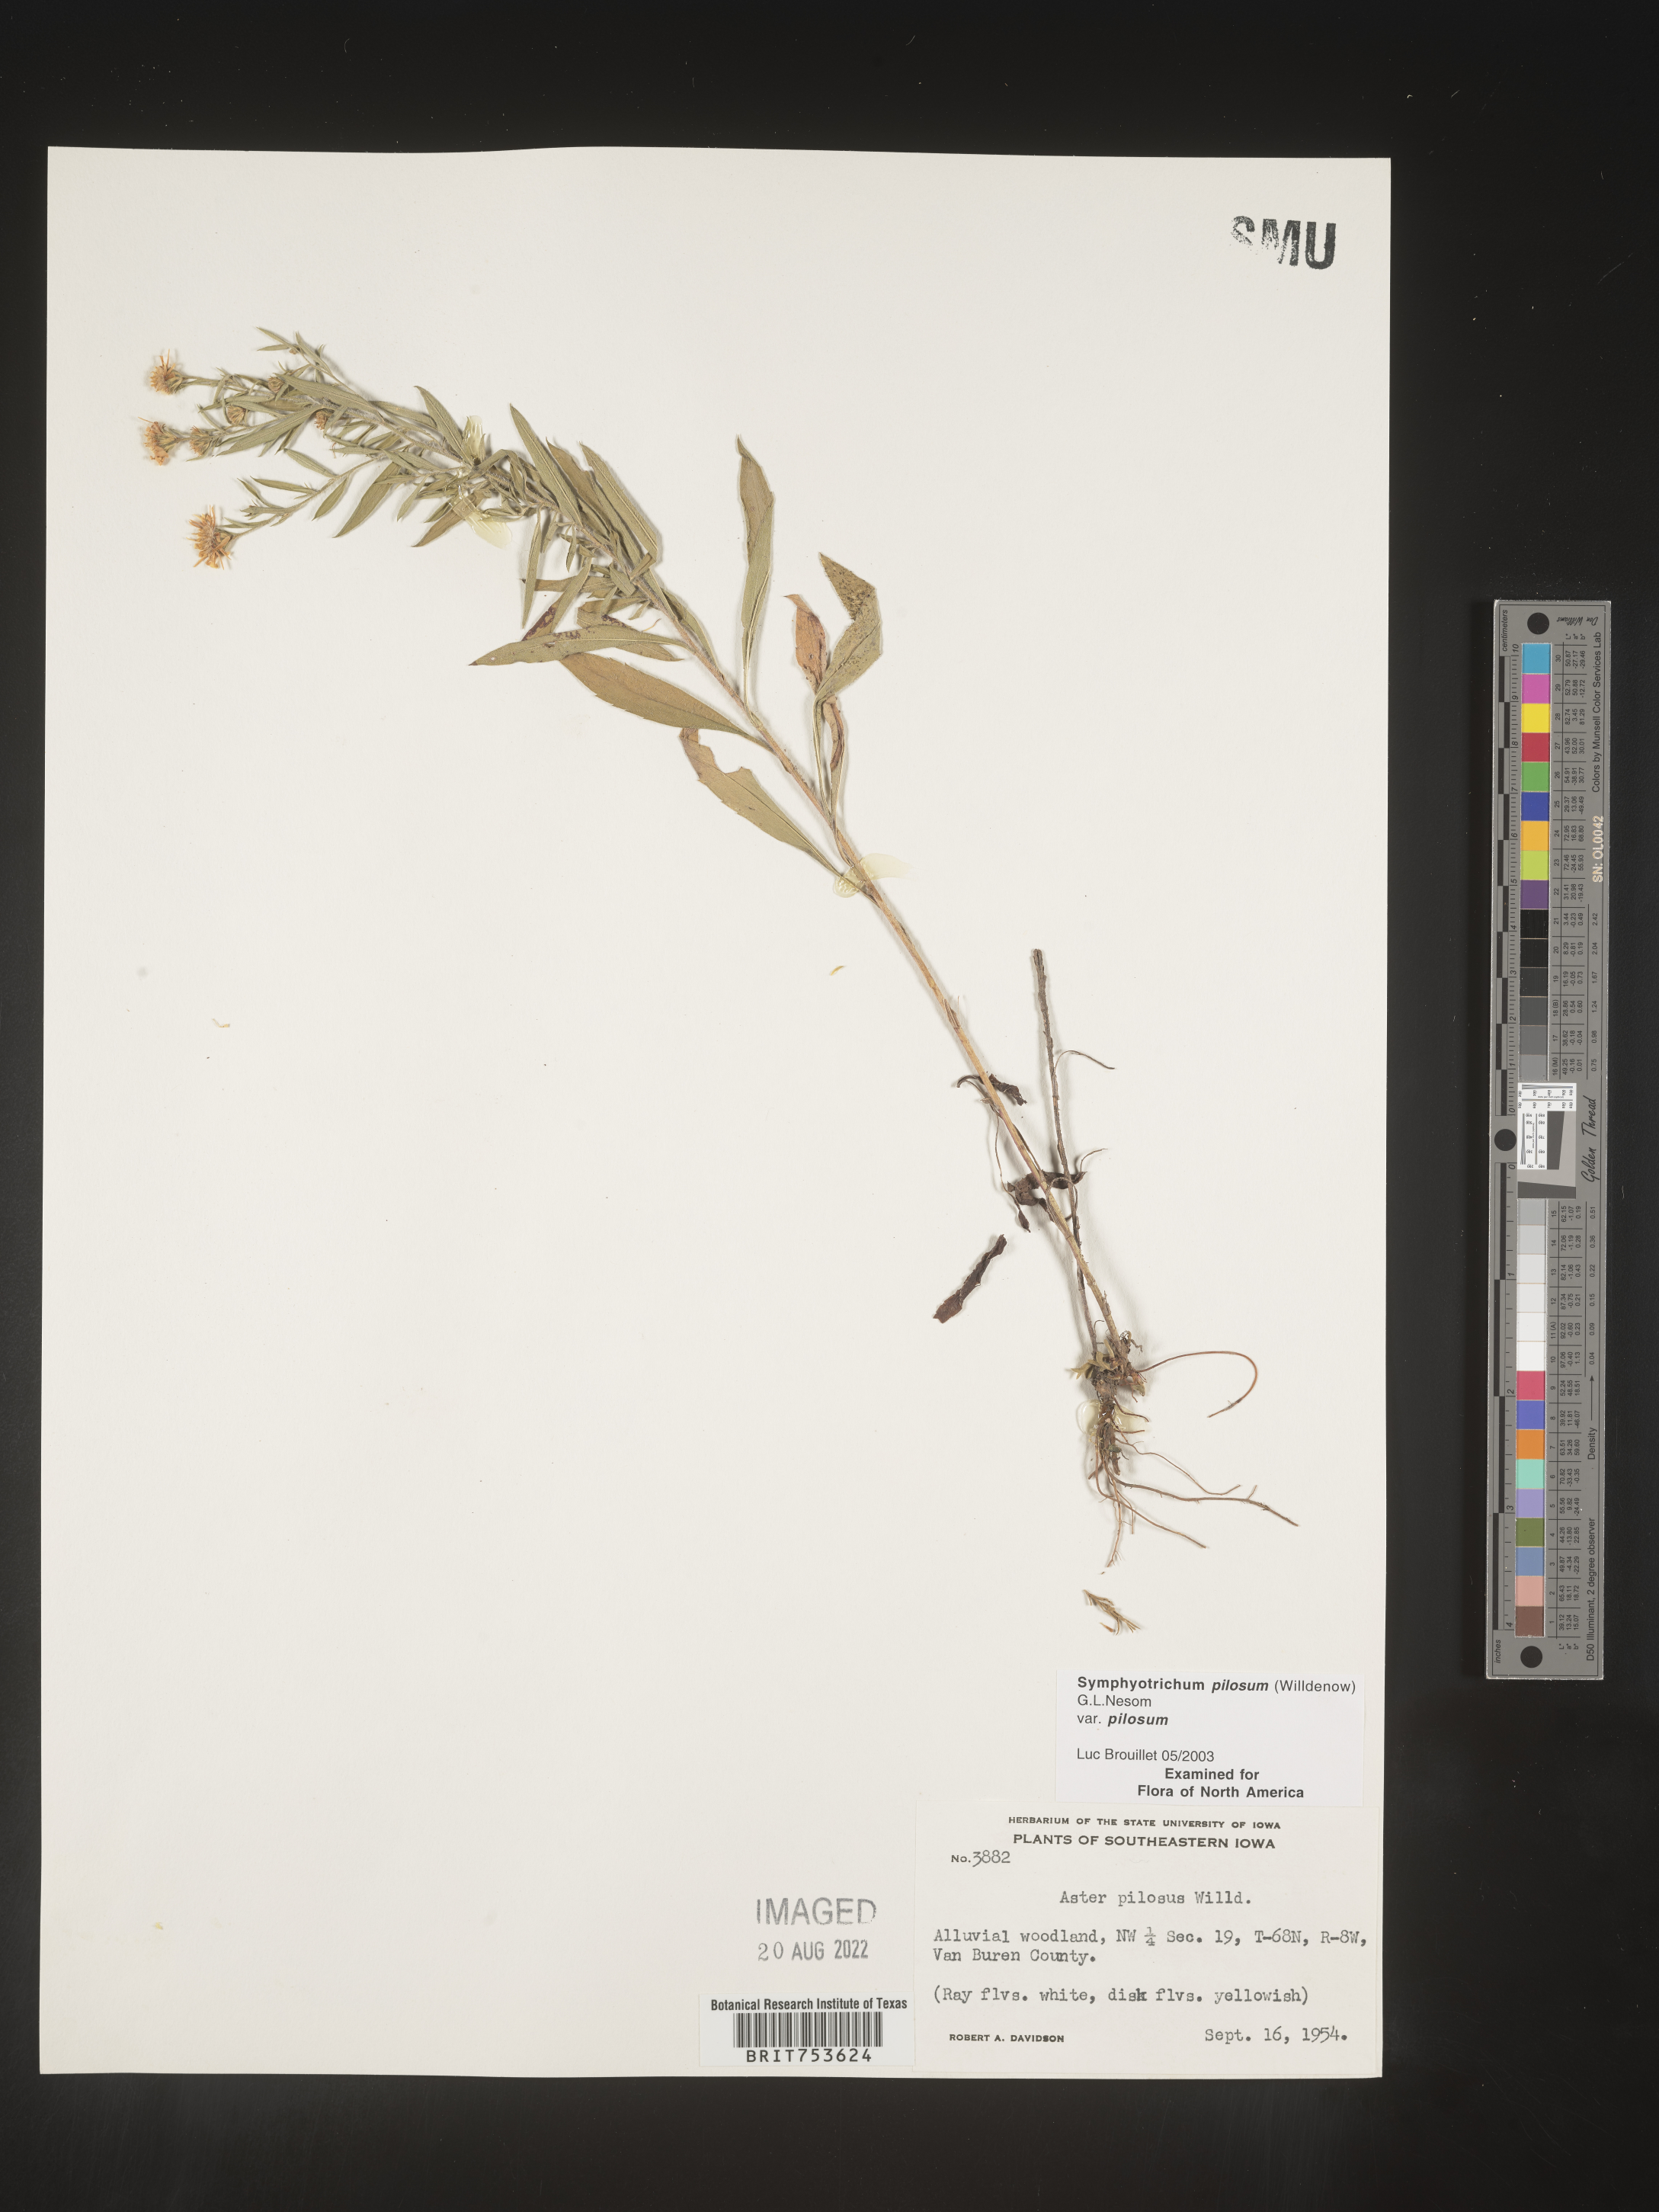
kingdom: Plantae
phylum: Tracheophyta
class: Magnoliopsida
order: Asterales
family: Asteraceae
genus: Symphyotrichum
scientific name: Symphyotrichum pilosum
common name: Awl aster
